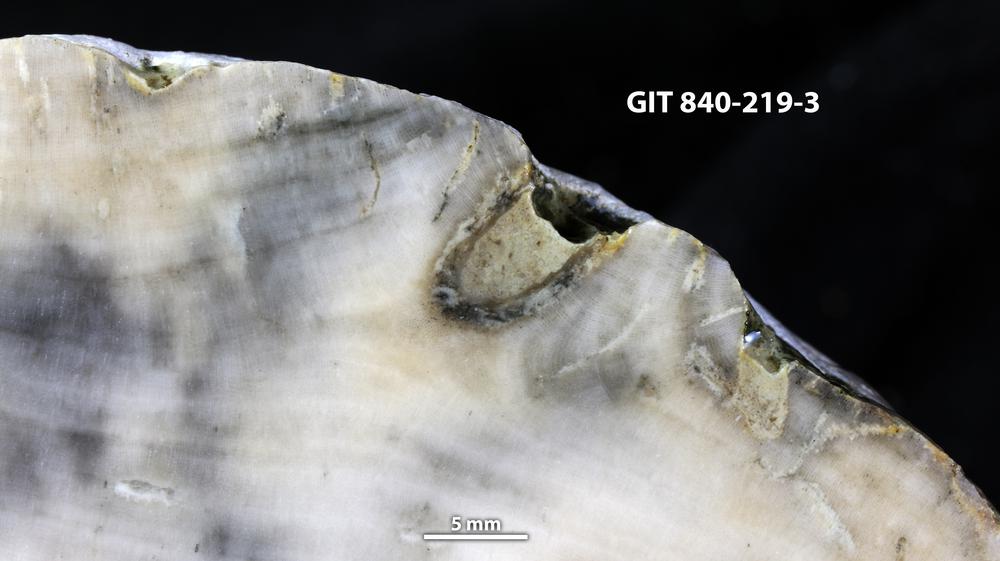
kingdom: Animalia
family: Cornulitidae
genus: Cornulites
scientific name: Cornulites
